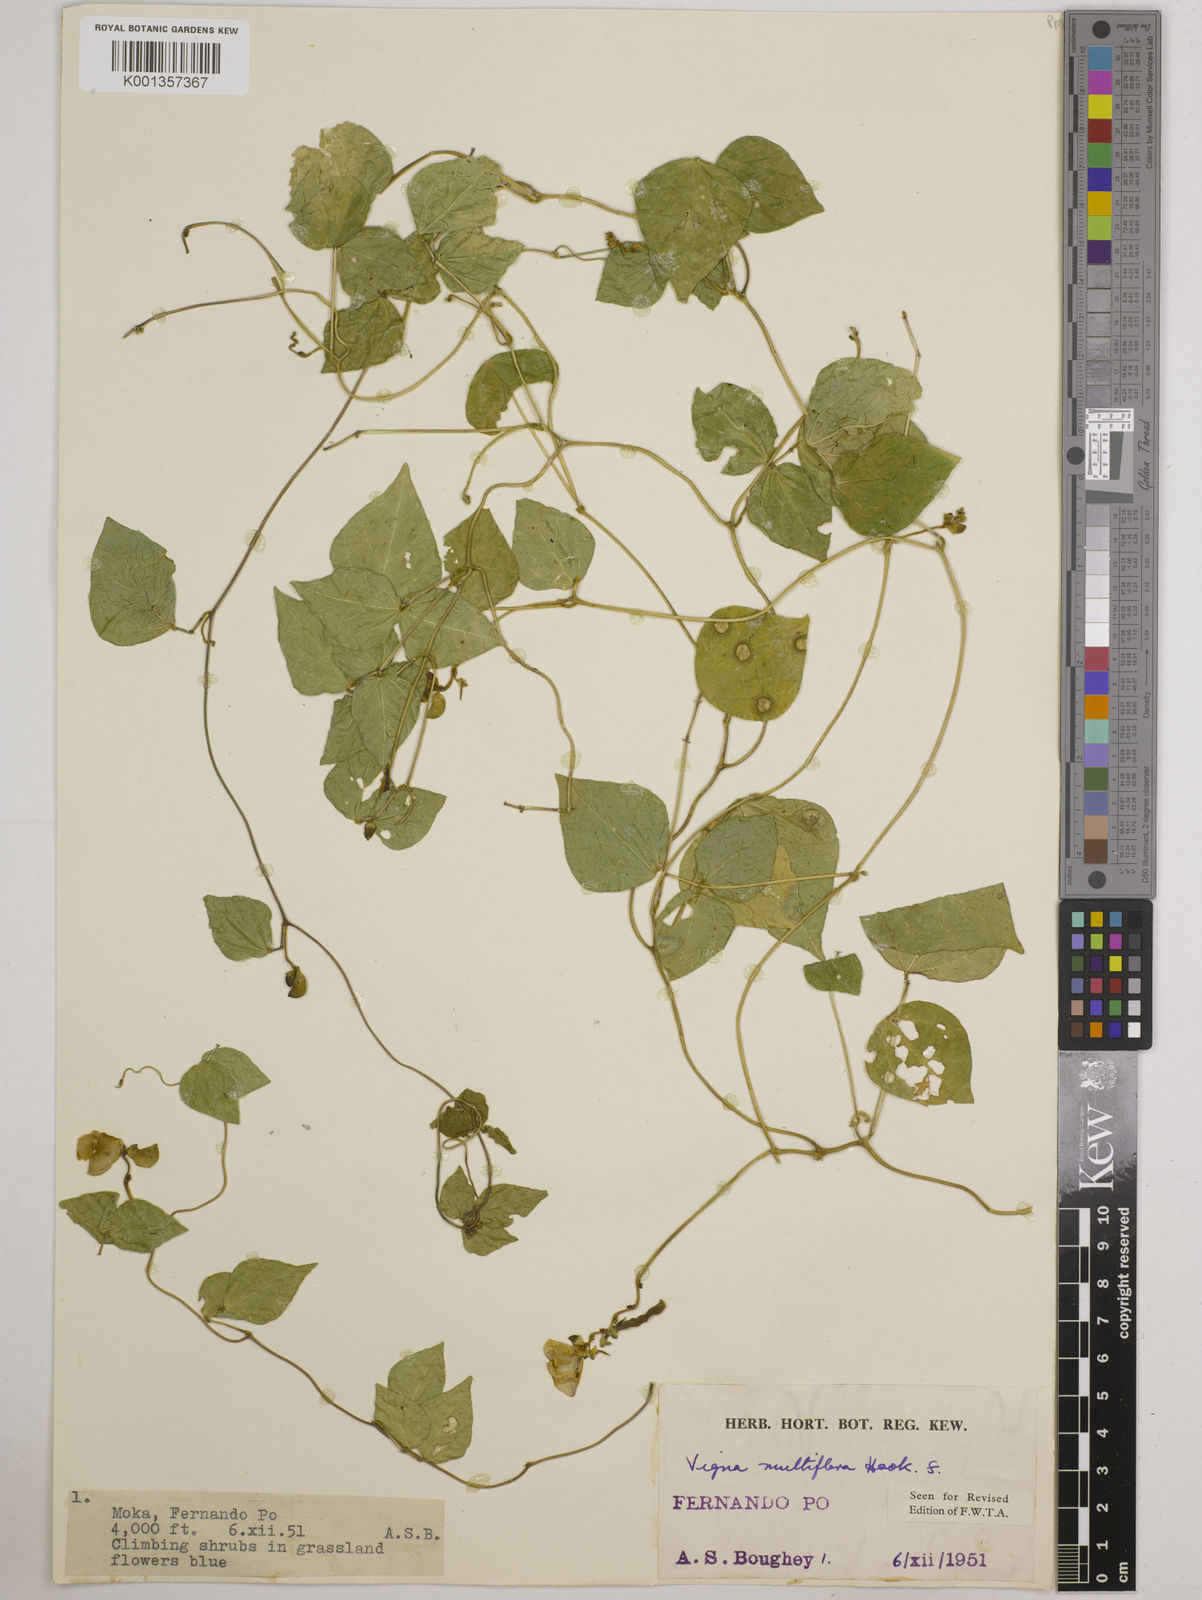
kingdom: Plantae
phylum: Tracheophyta
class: Magnoliopsida
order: Fabales
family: Fabaceae
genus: Vigna
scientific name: Vigna gracilis
